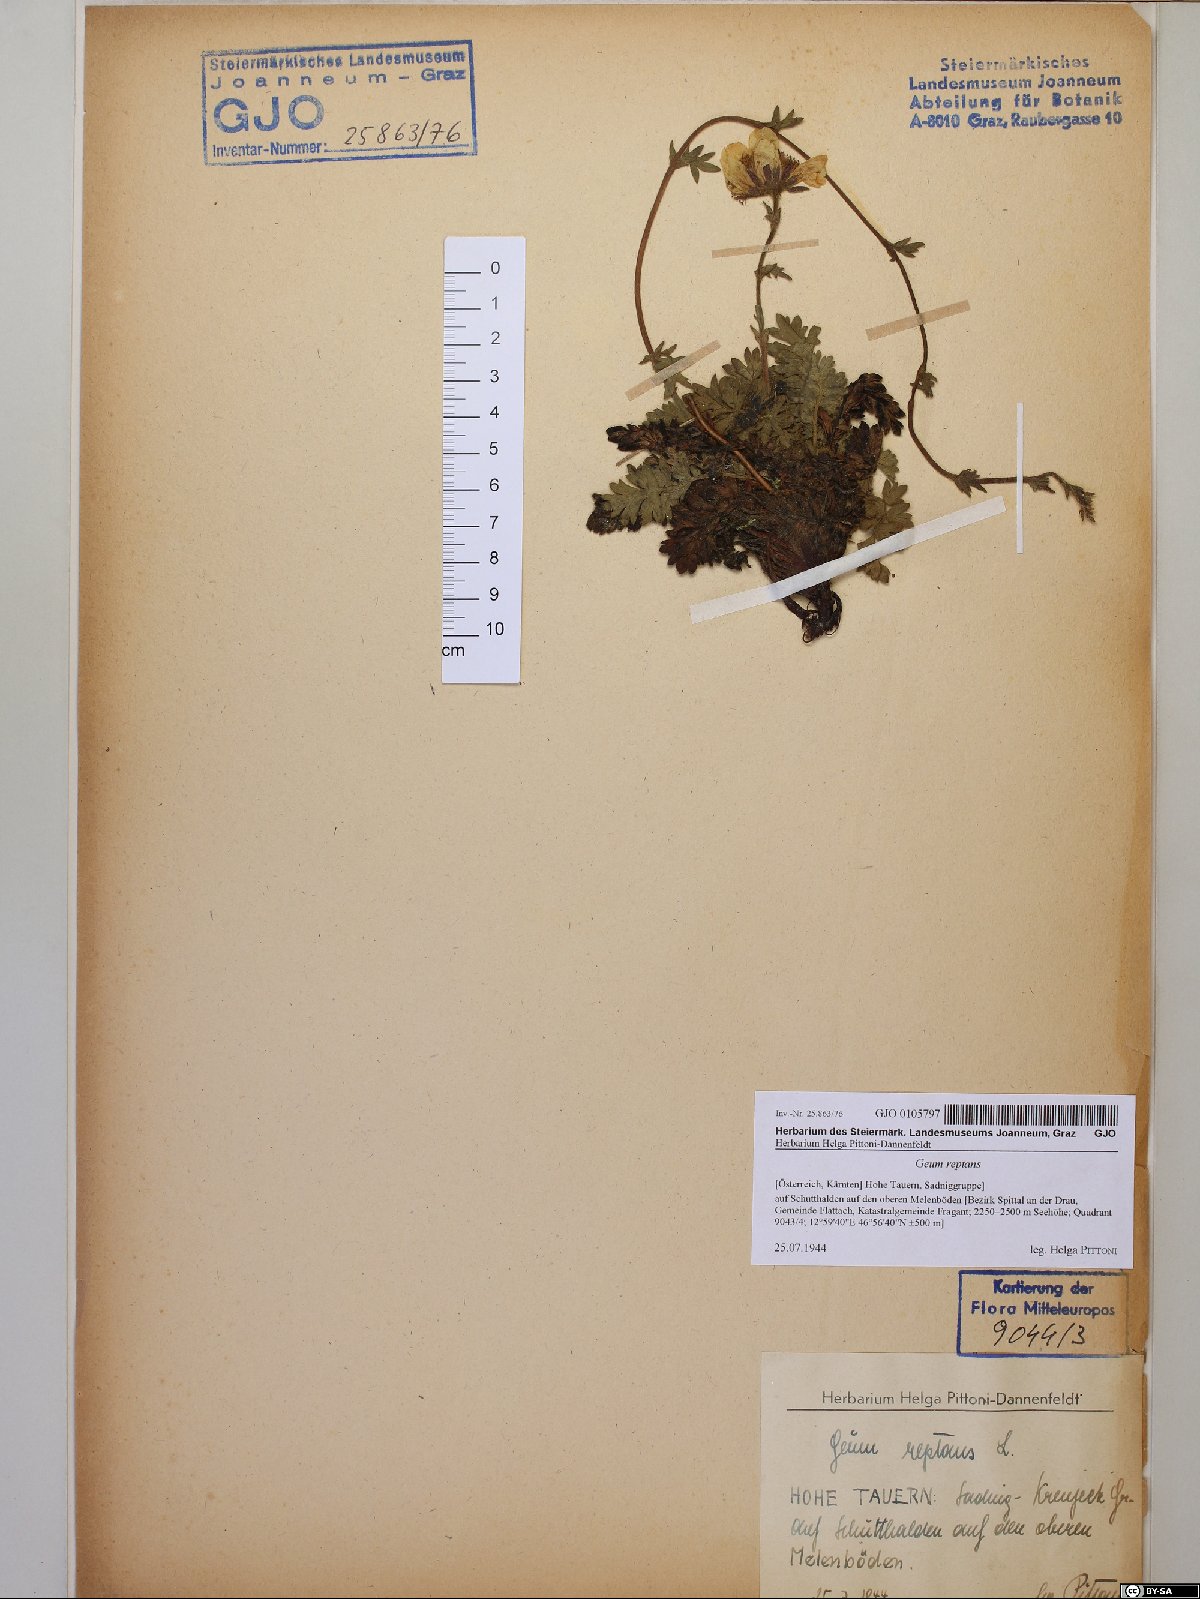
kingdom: Plantae
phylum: Tracheophyta
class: Magnoliopsida
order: Rosales
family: Rosaceae
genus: Geum
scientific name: Geum reptans
